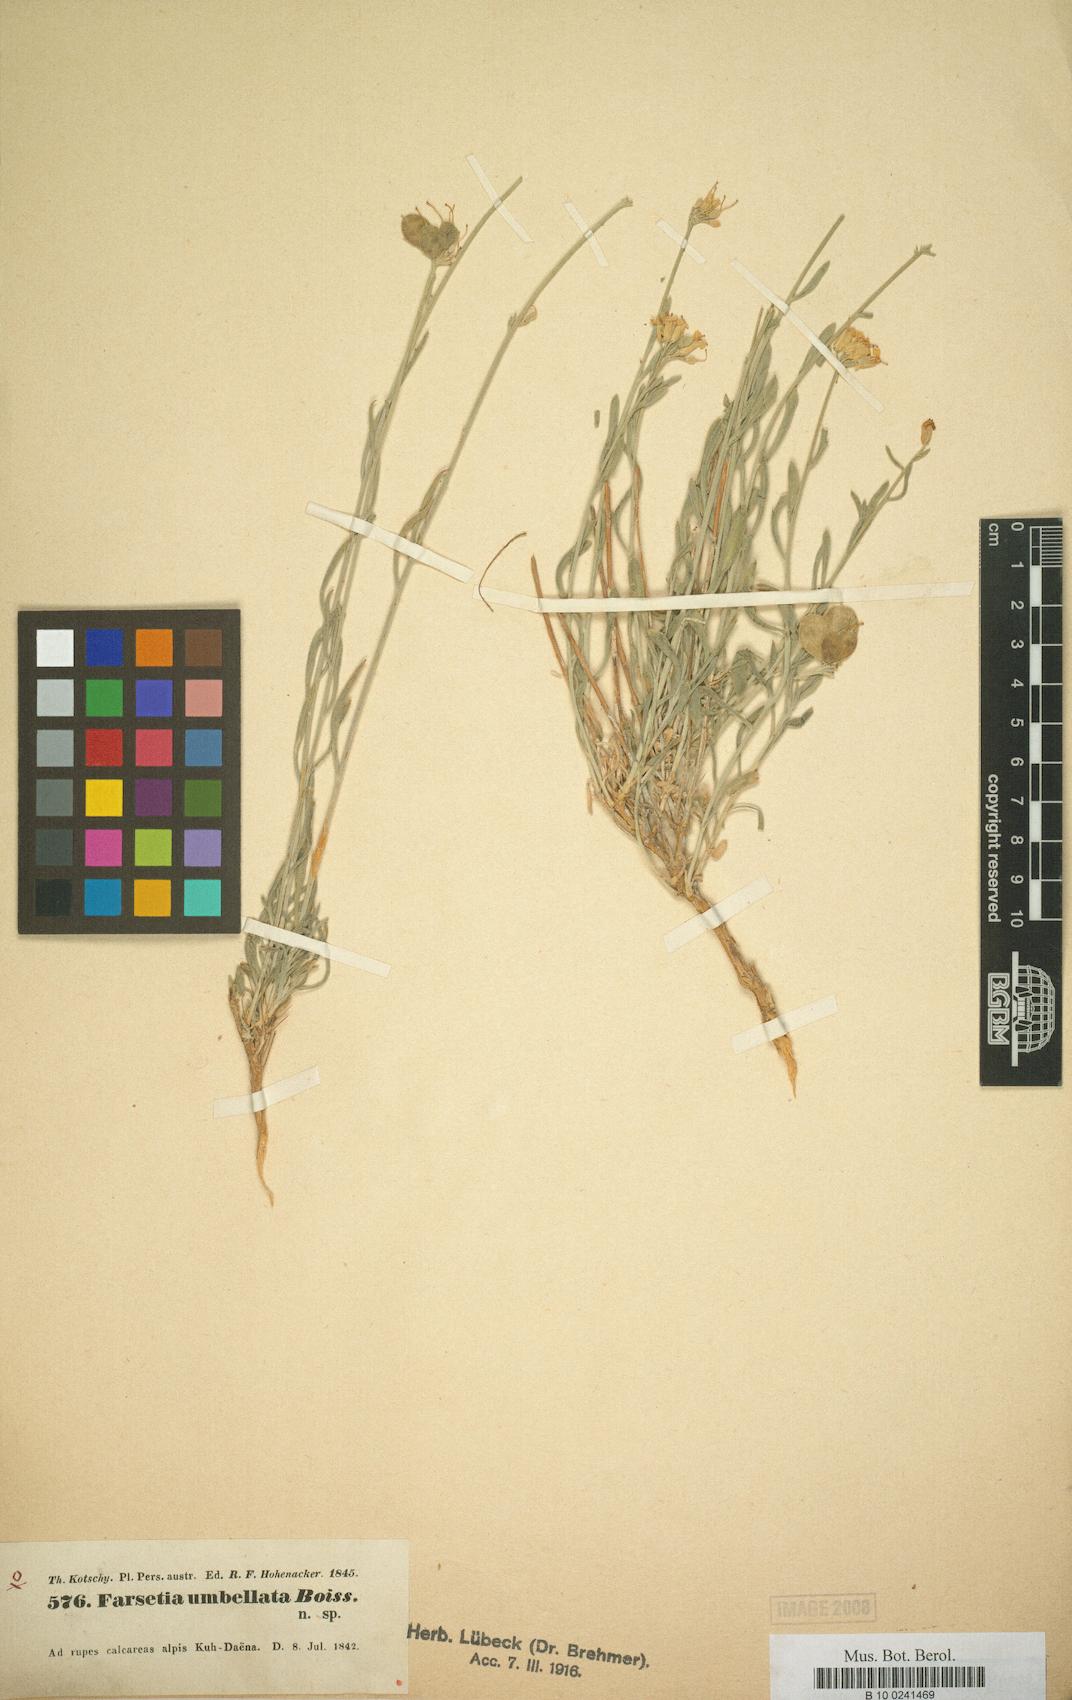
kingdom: Plantae
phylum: Tracheophyta
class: Magnoliopsida
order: Brassicales
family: Brassicaceae
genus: Irania
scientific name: Irania umbellata
